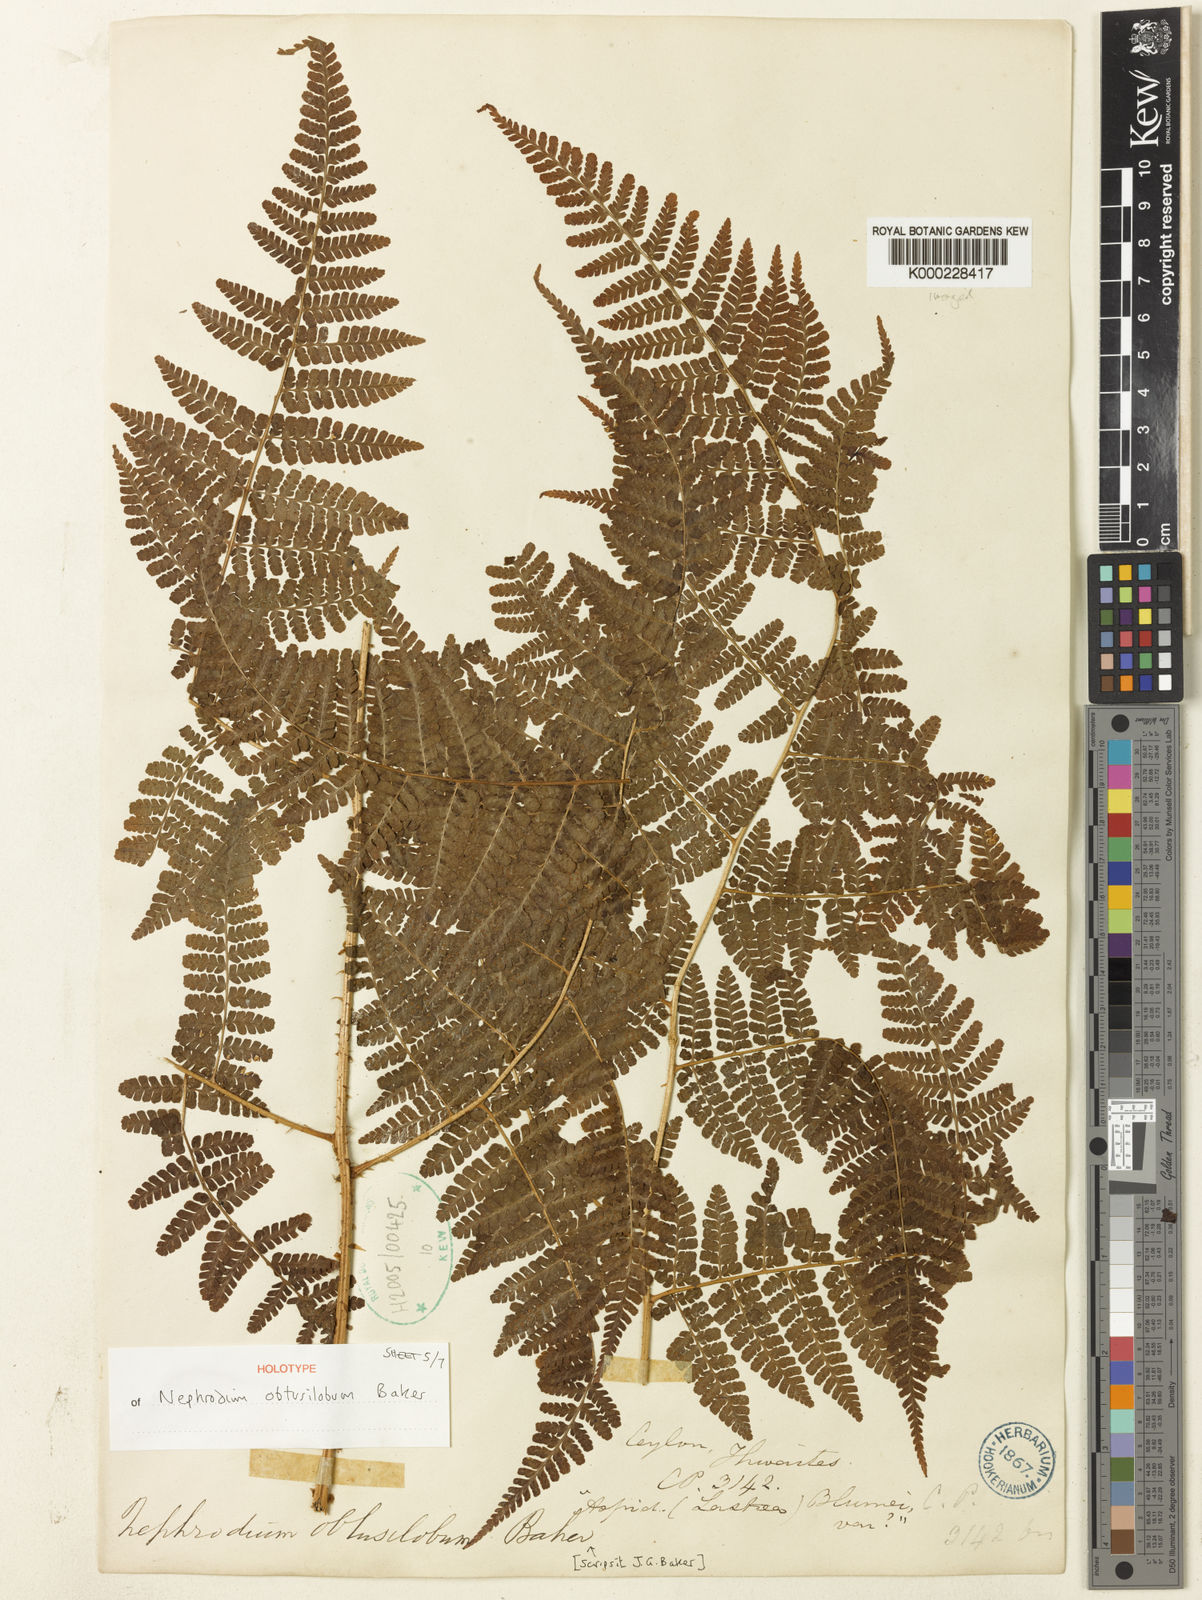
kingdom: Plantae
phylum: Tracheophyta
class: Polypodiopsida
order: Polypodiales
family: Dryopteridaceae
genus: Dryopteris
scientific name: Dryopteris obtusiloba
